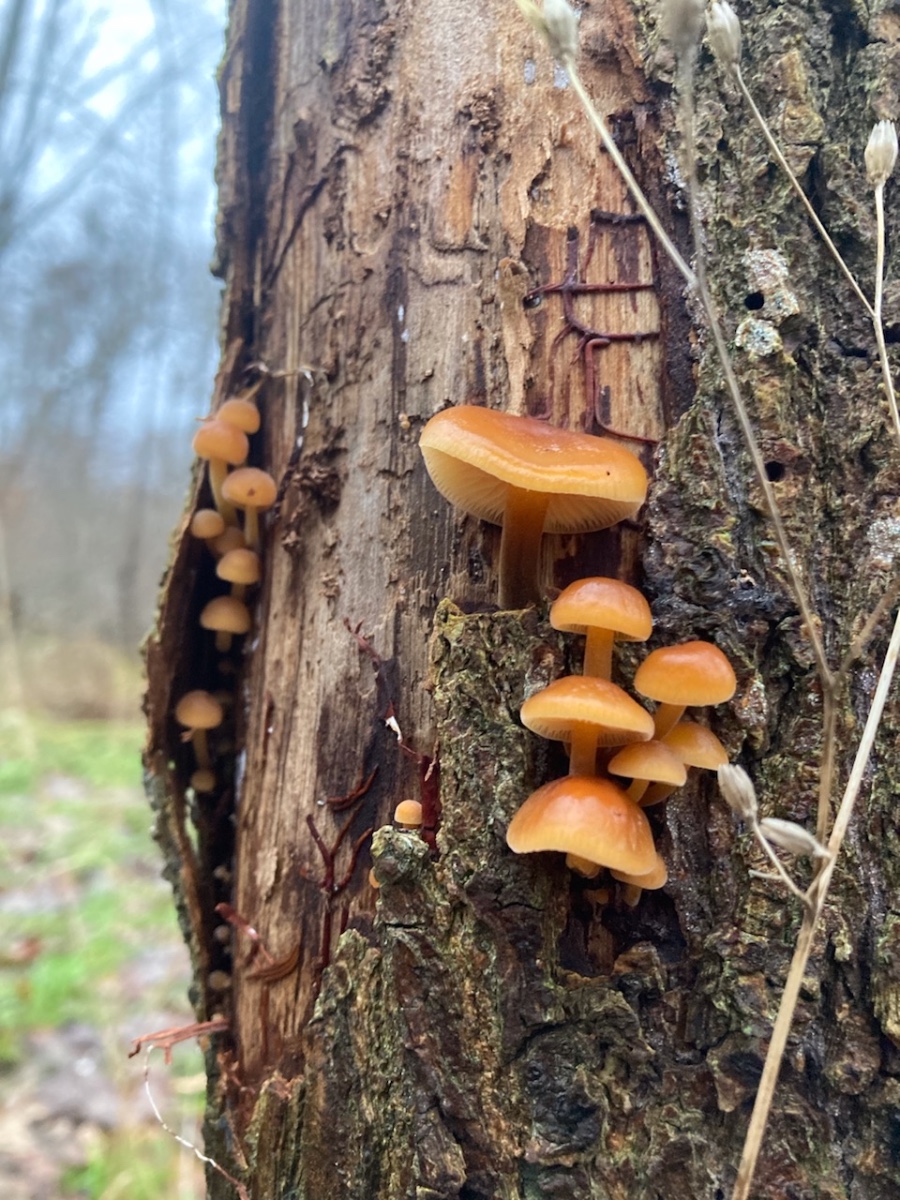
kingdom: Fungi
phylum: Basidiomycota
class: Agaricomycetes
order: Agaricales
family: Physalacriaceae
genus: Flammulina
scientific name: Flammulina velutipes
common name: gul fløjlsfod
